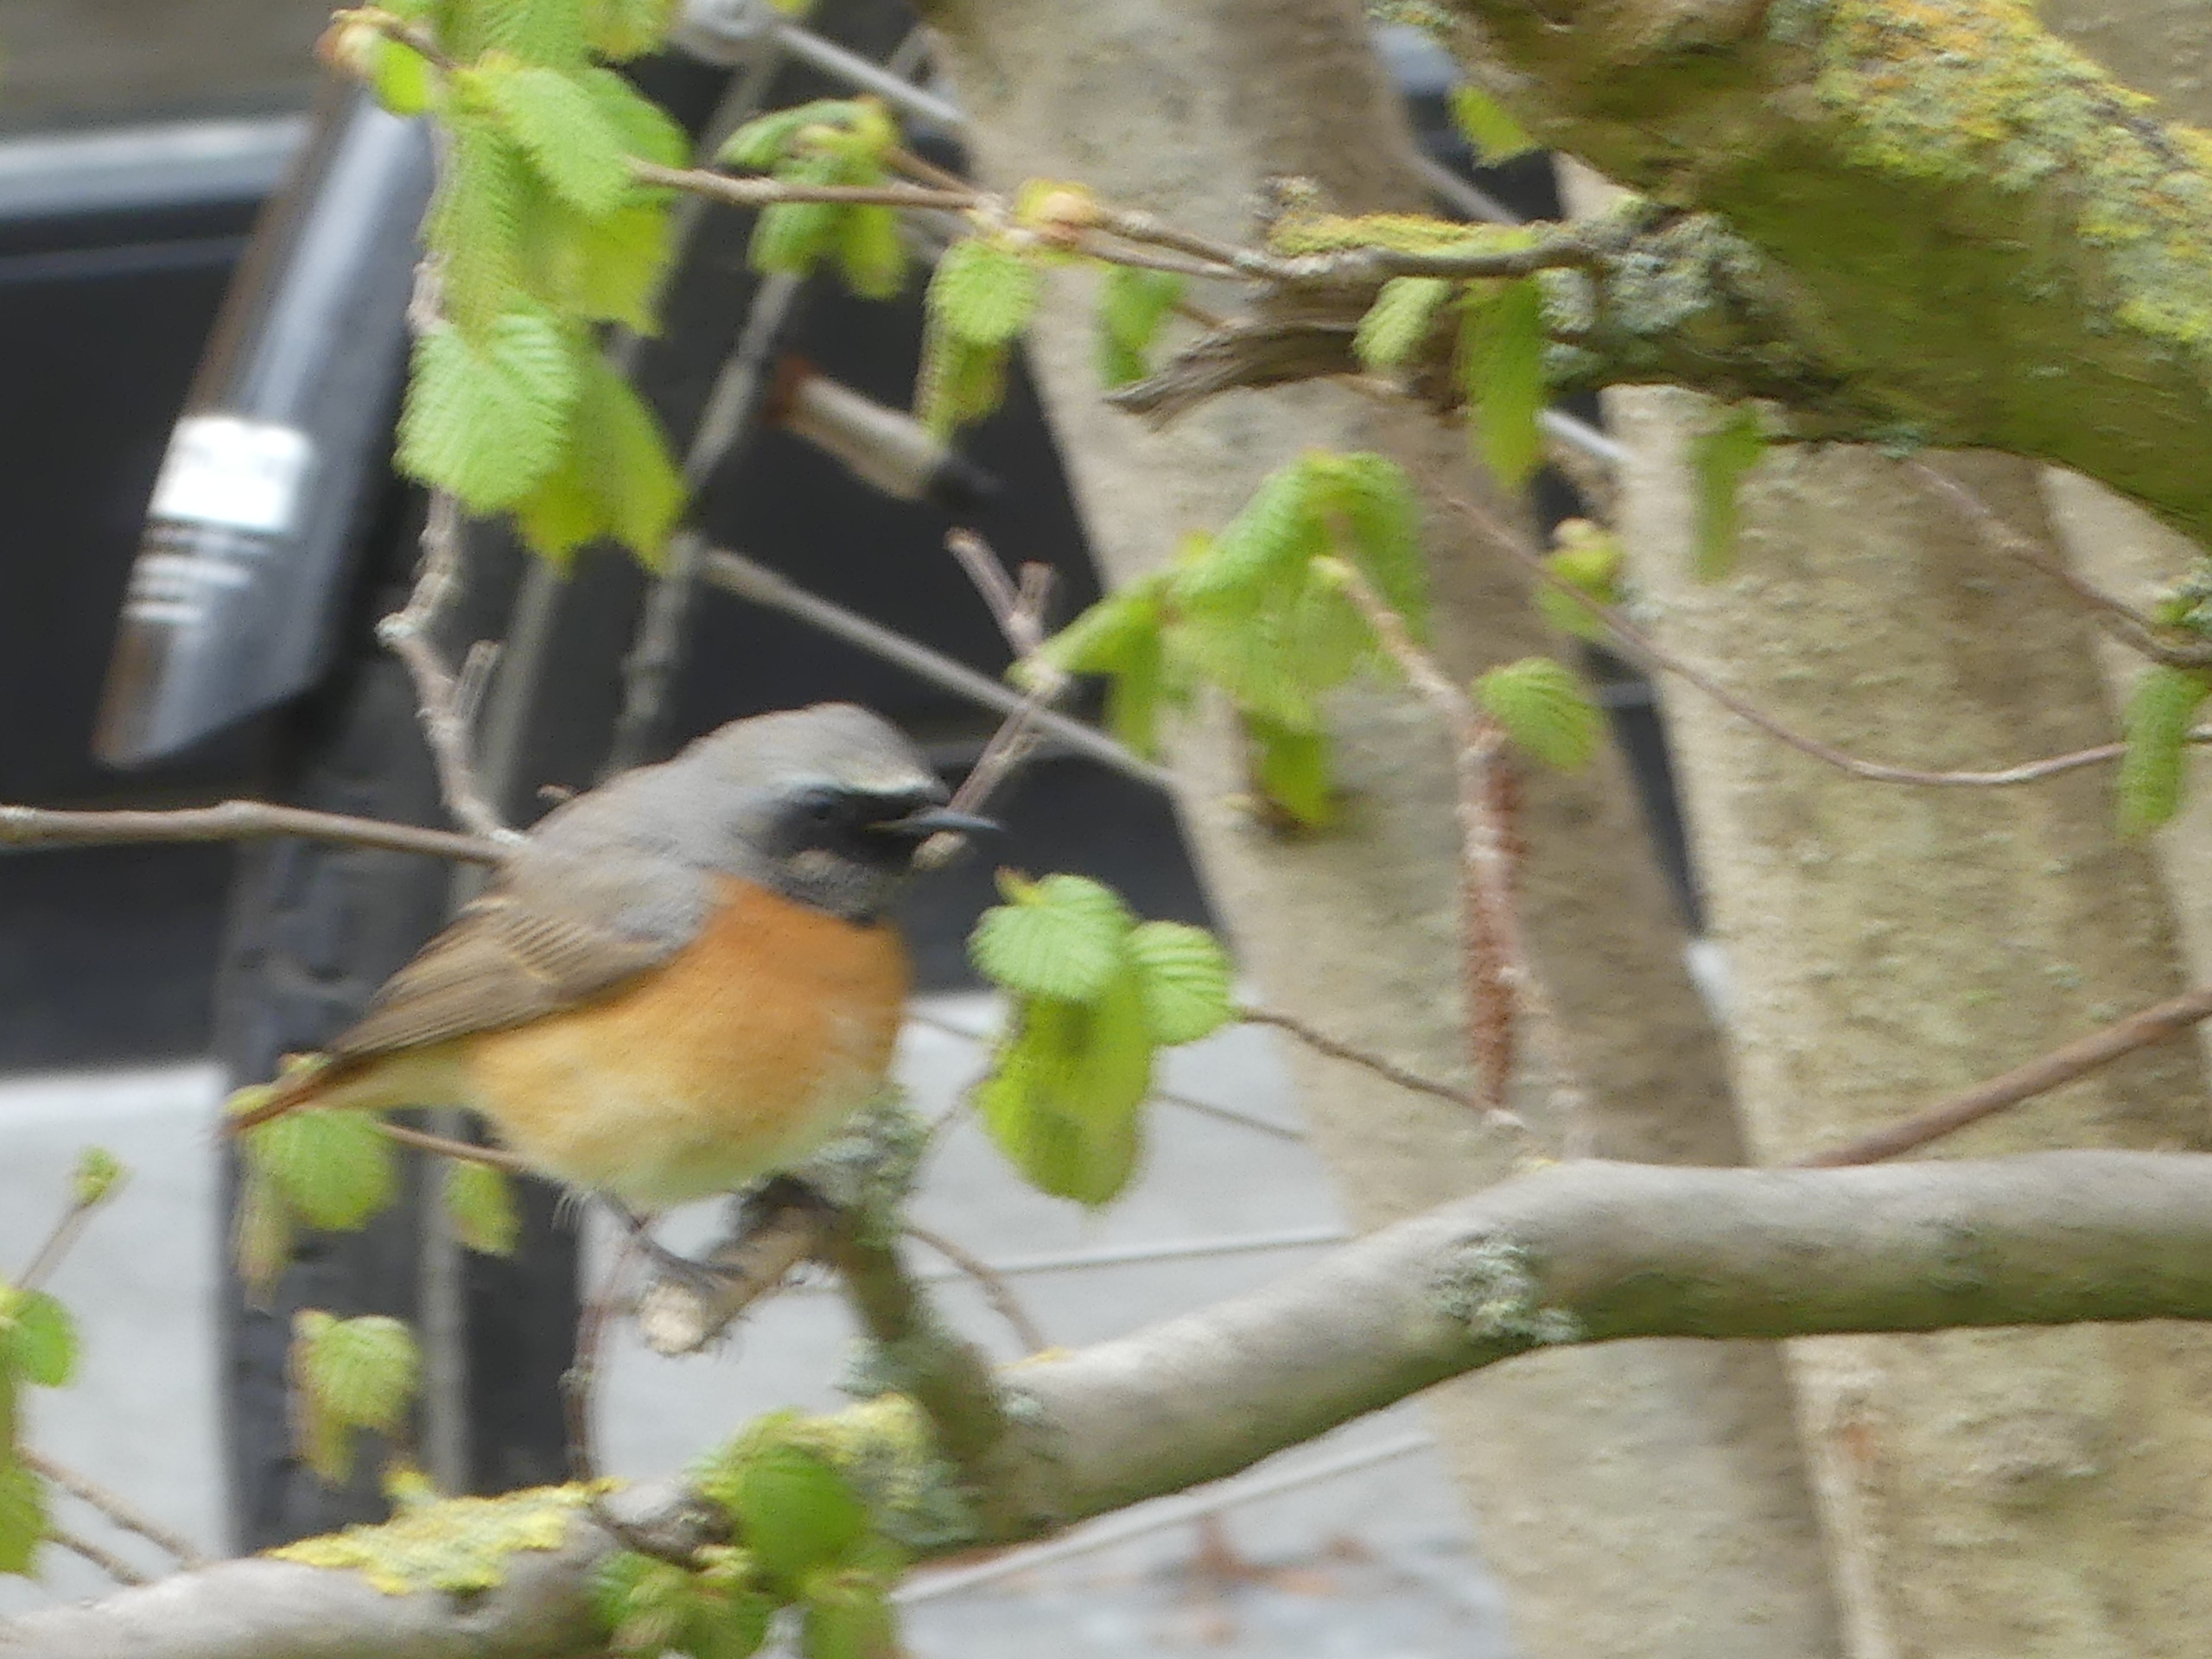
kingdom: Animalia
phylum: Chordata
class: Aves
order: Passeriformes
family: Muscicapidae
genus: Phoenicurus
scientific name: Phoenicurus phoenicurus
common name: Rødstjert
